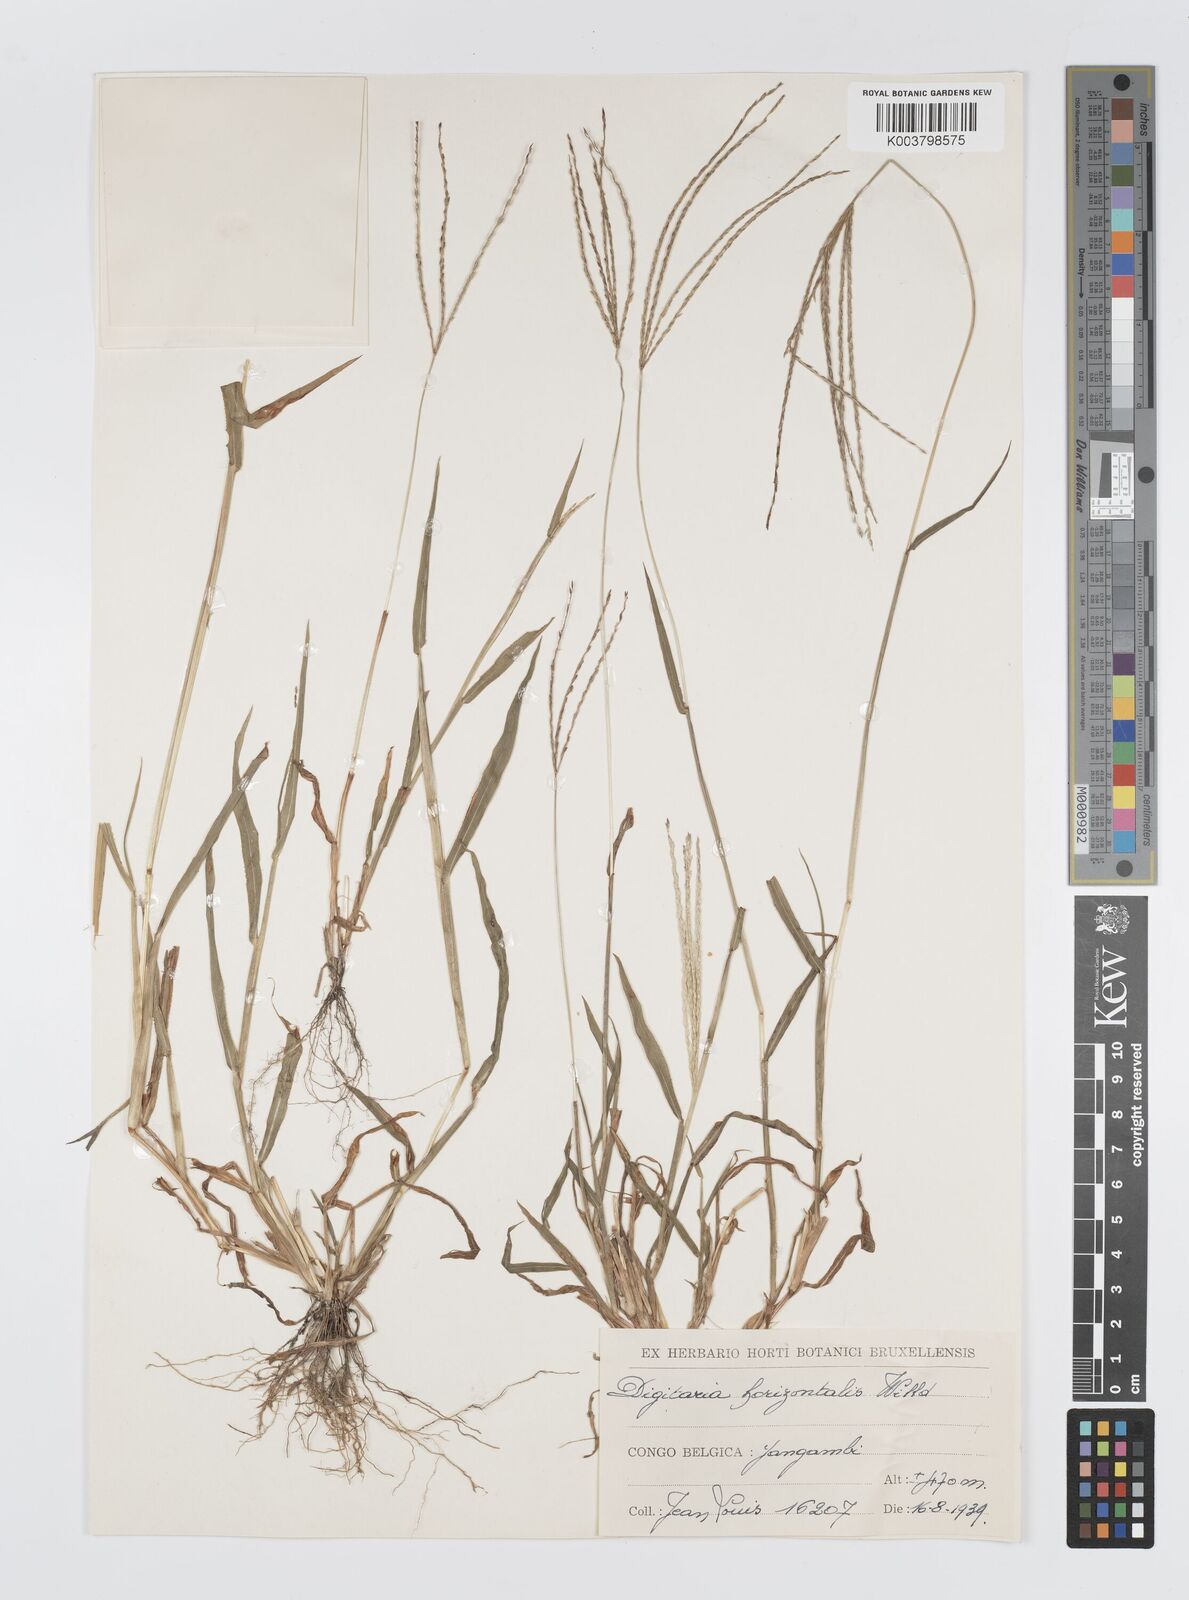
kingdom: Plantae
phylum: Tracheophyta
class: Liliopsida
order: Poales
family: Poaceae
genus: Digitaria
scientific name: Digitaria nuda
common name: Naked crabgrass
